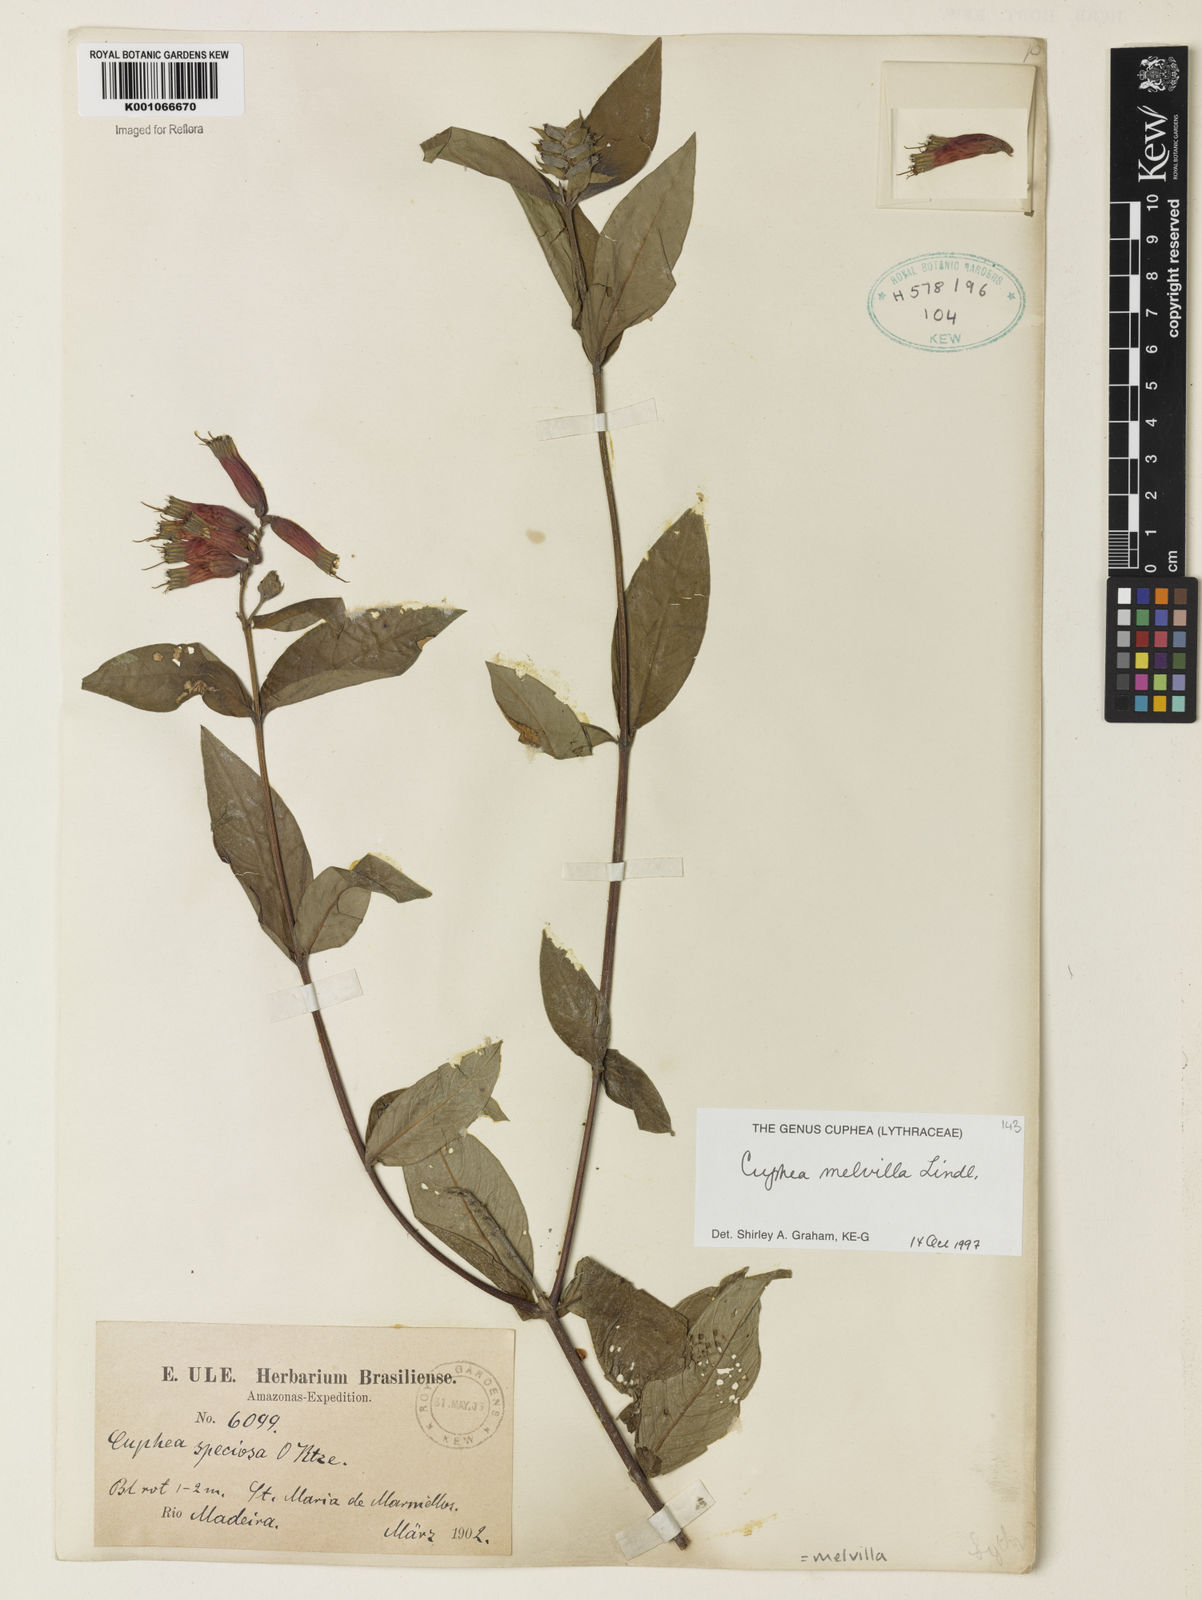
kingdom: Plantae
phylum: Tracheophyta
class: Magnoliopsida
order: Myrtales
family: Lythraceae
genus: Cuphea
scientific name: Cuphea melvilla
